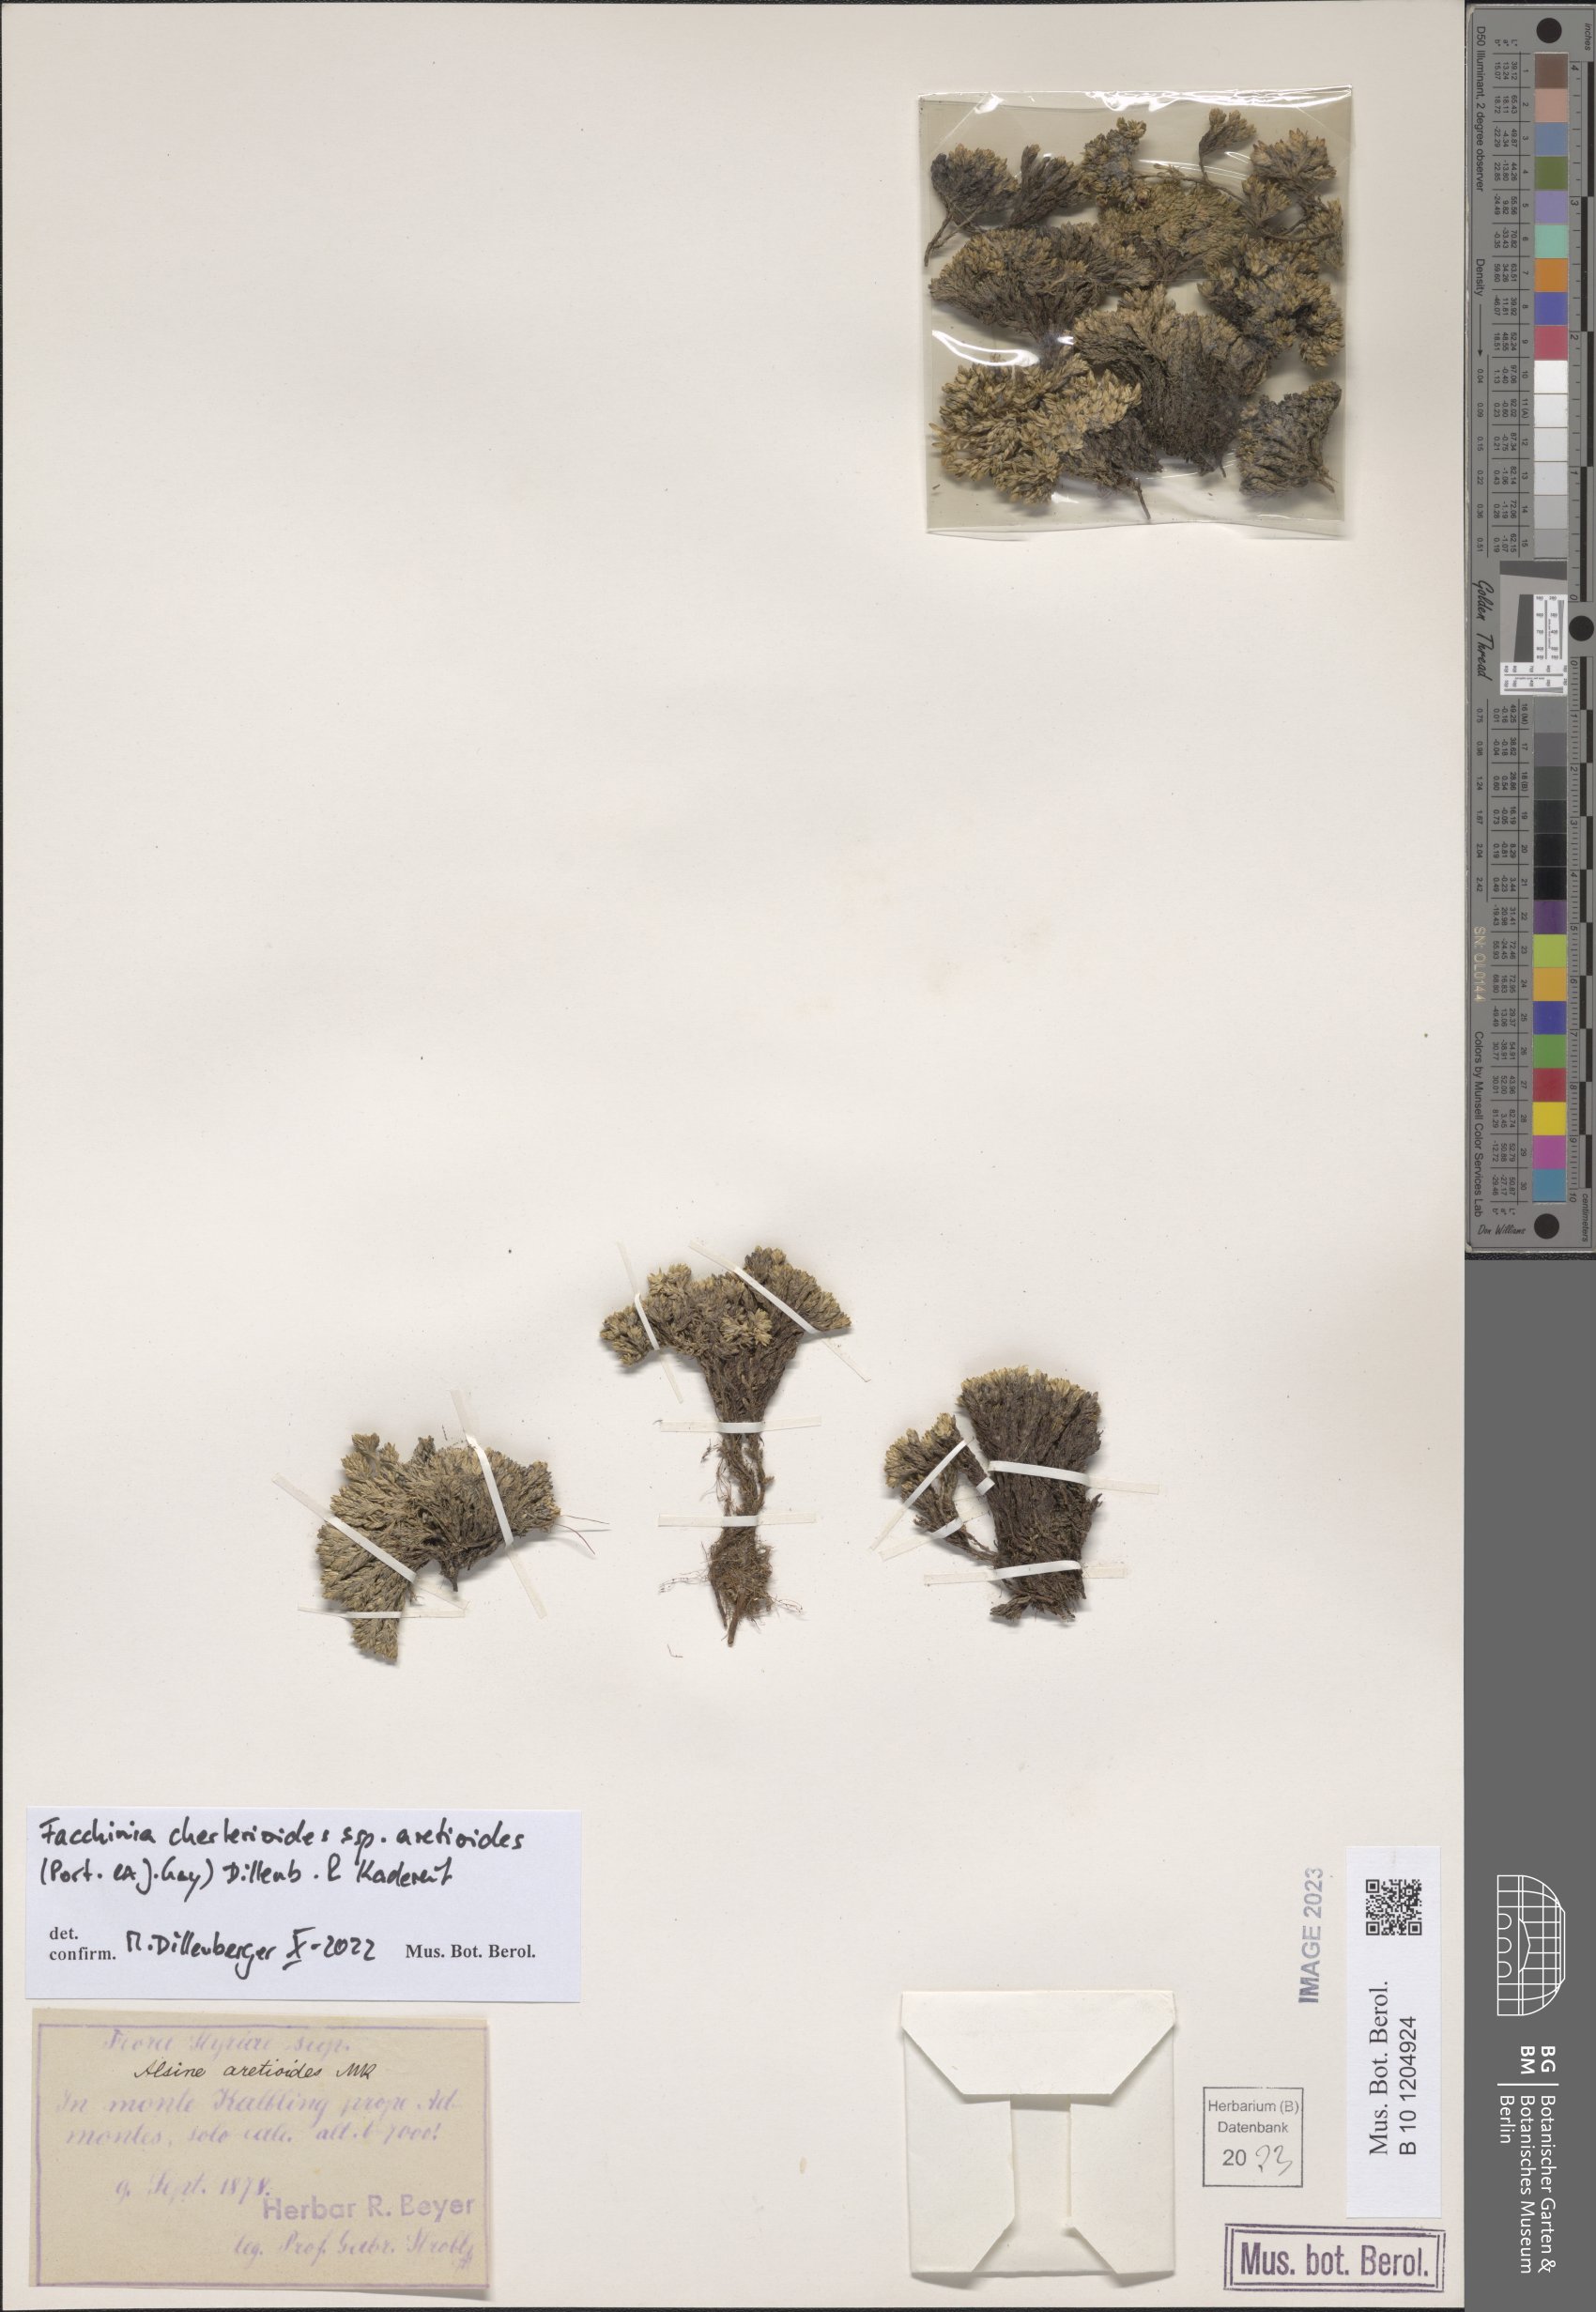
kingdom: Plantae
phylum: Tracheophyta
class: Magnoliopsida
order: Caryophyllales
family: Caryophyllaceae
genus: Facchinia
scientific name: Facchinia cherlerioides
